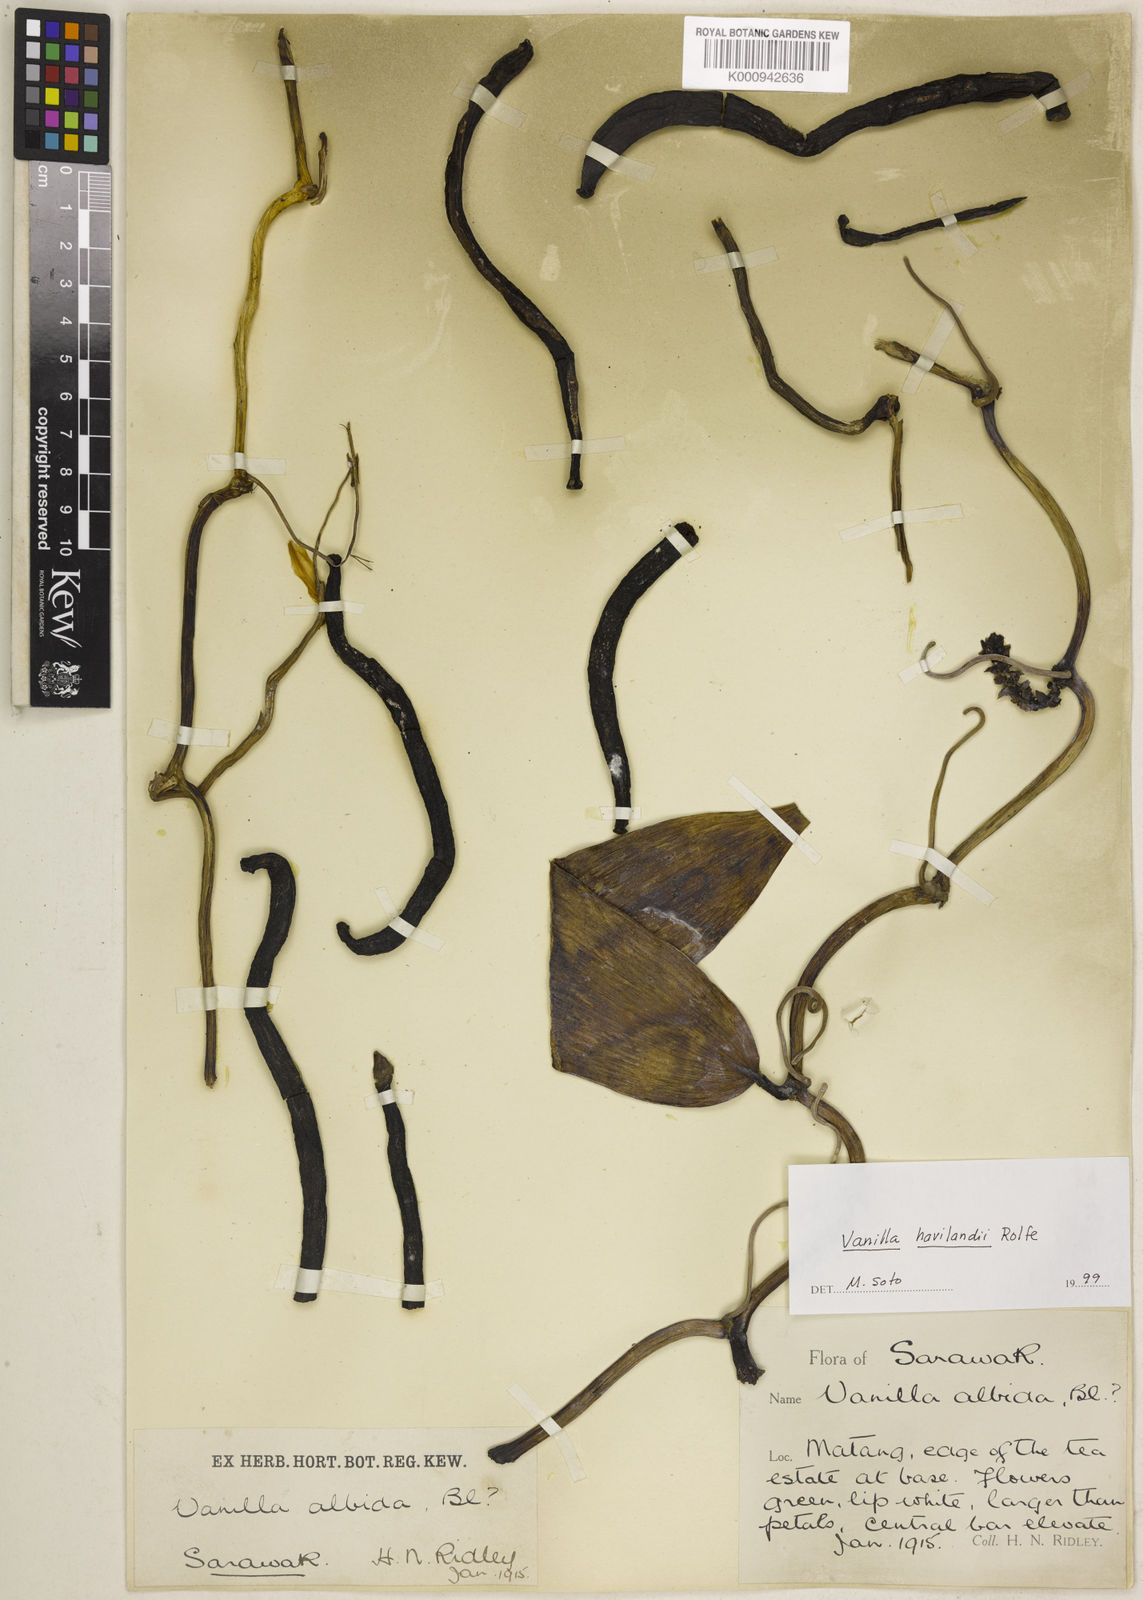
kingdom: Plantae
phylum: Tracheophyta
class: Liliopsida
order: Asparagales
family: Orchidaceae
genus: Vanilla
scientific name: Vanilla havilandii
